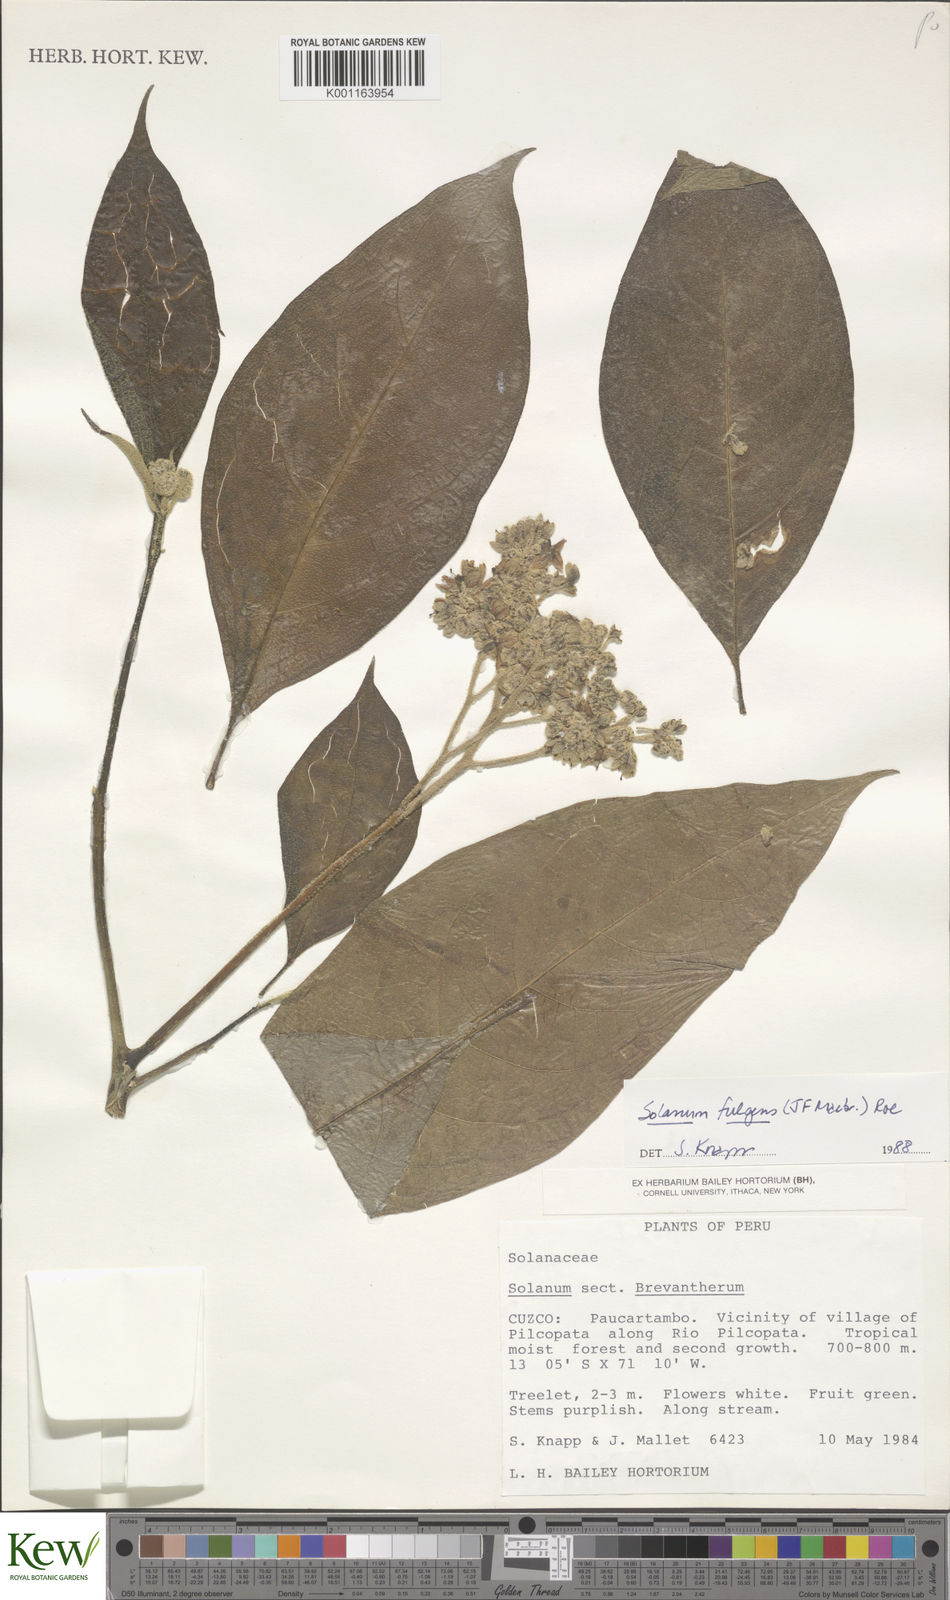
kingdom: Plantae
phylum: Tracheophyta
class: Magnoliopsida
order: Solanales
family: Solanaceae
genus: Solanum
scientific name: Solanum fulgens
